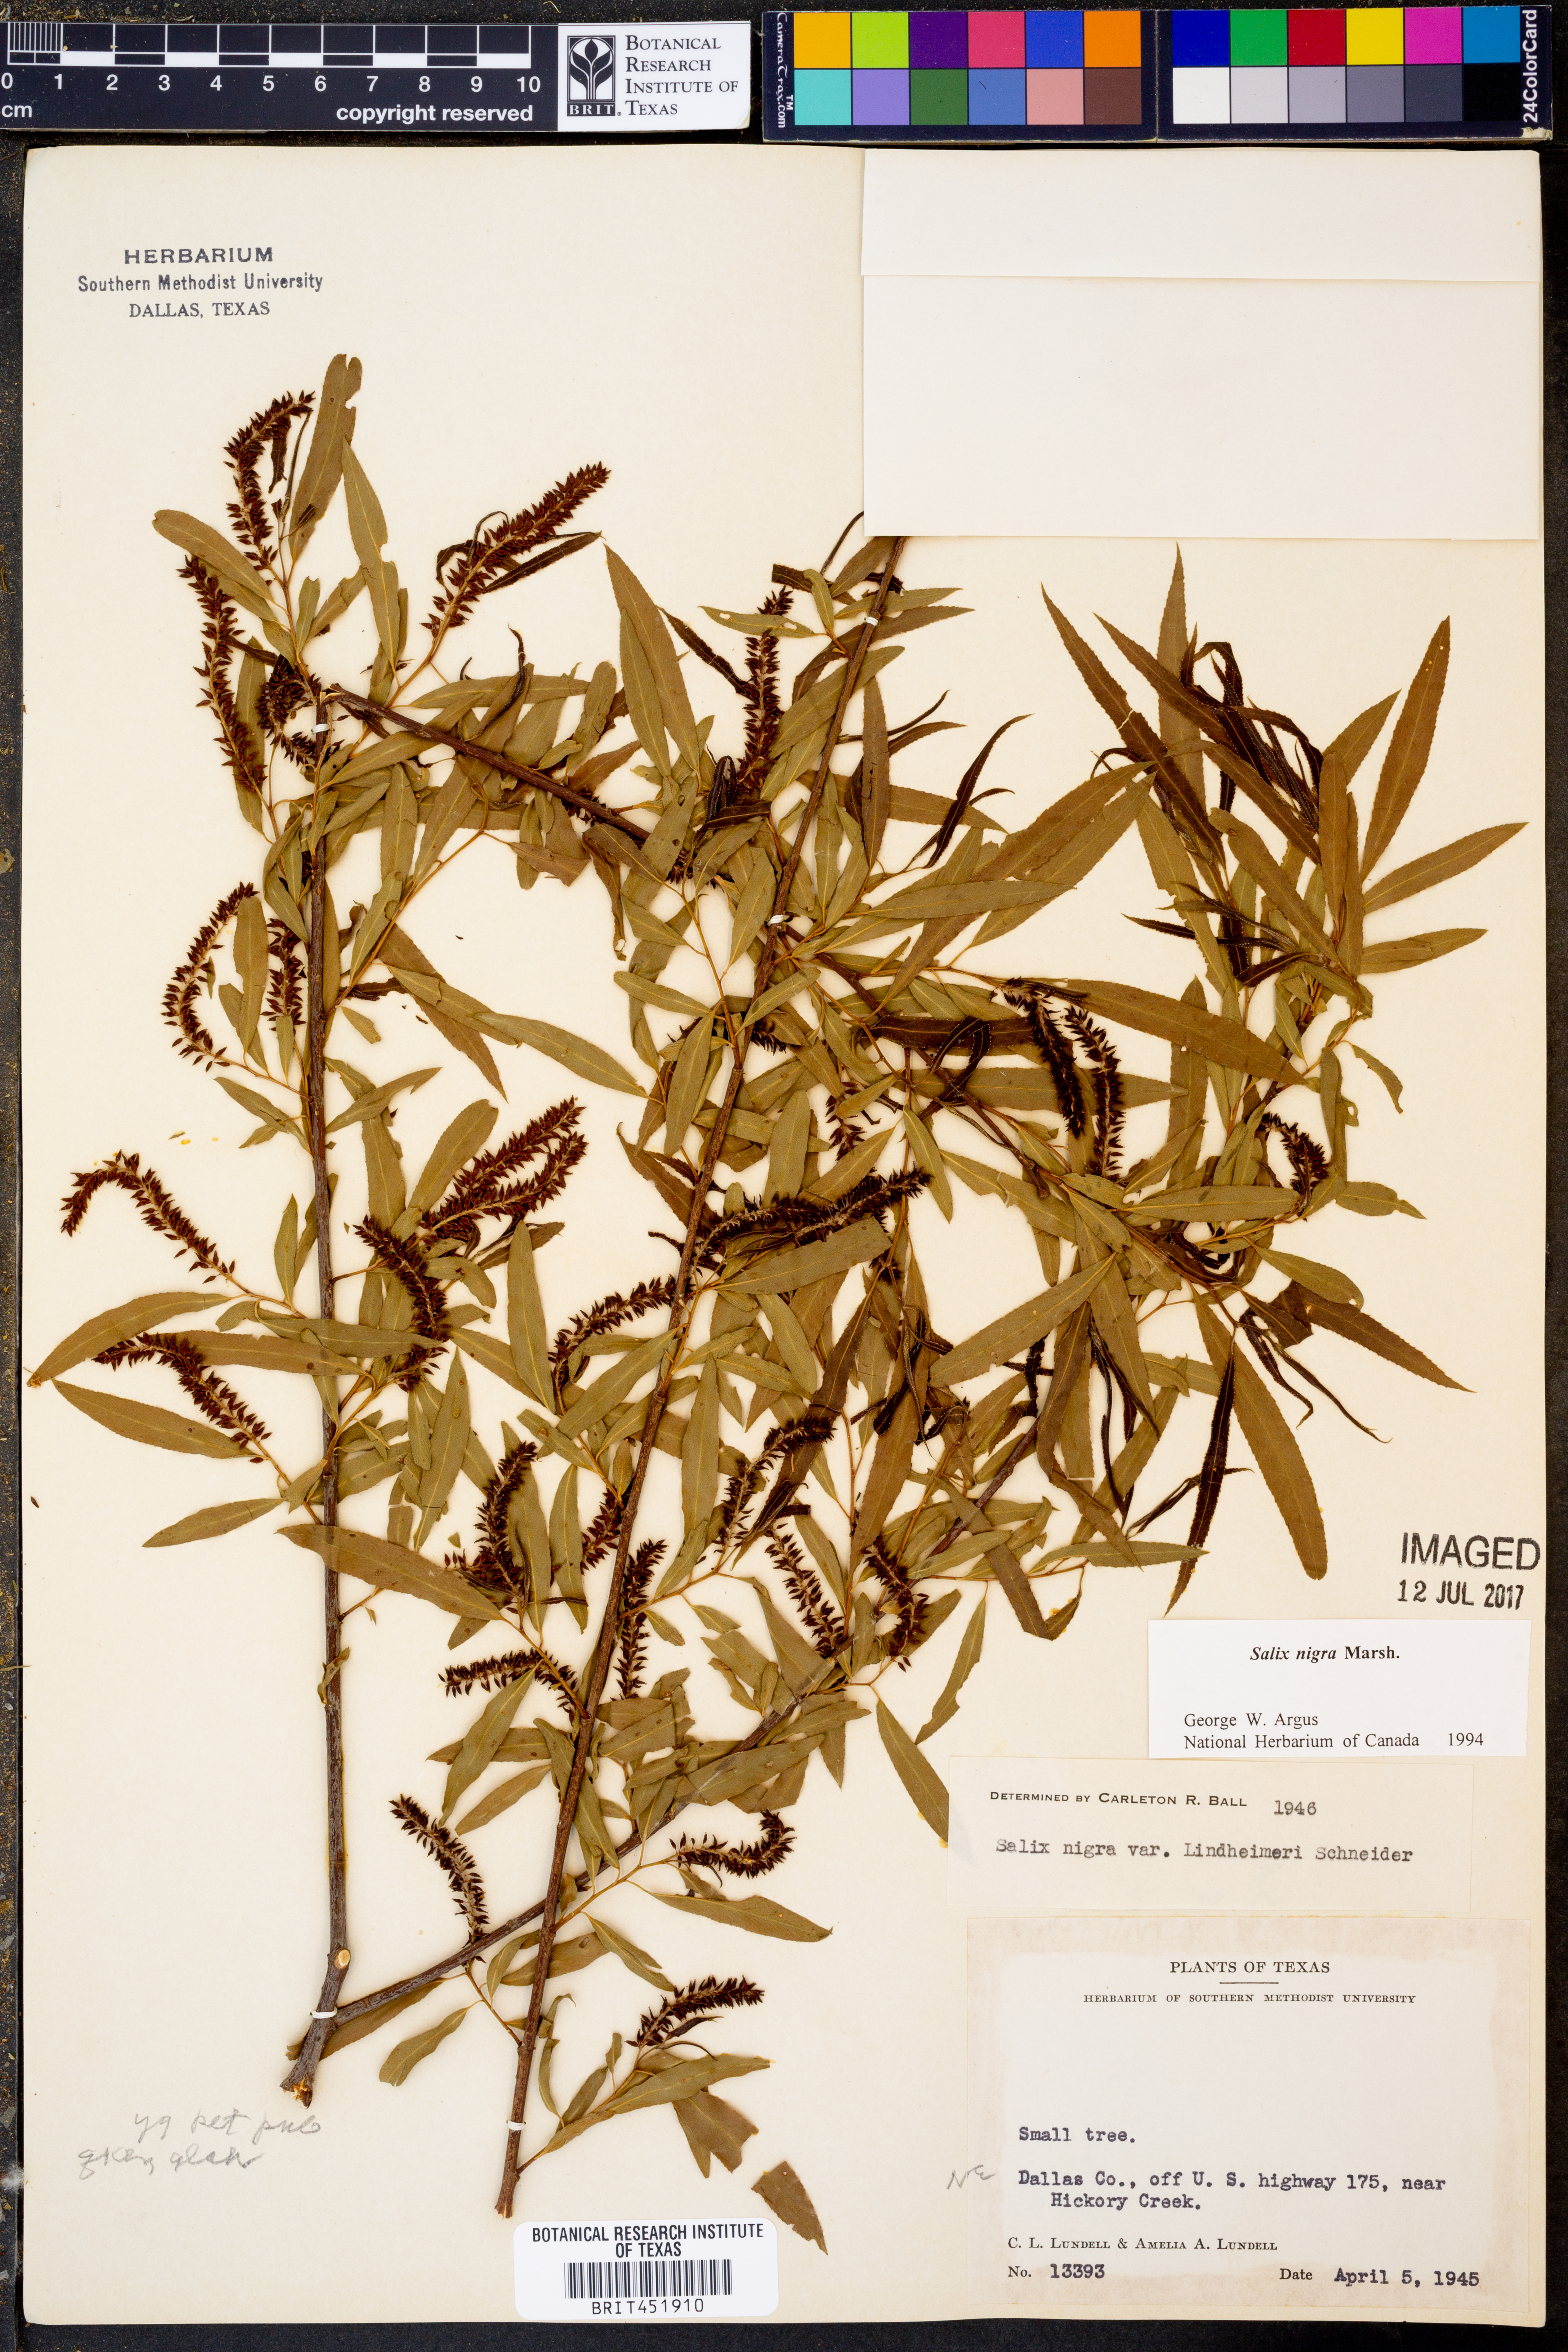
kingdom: Plantae
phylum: Tracheophyta
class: Magnoliopsida
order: Malpighiales
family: Salicaceae
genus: Salix
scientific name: Salix nigra
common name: Black willow
